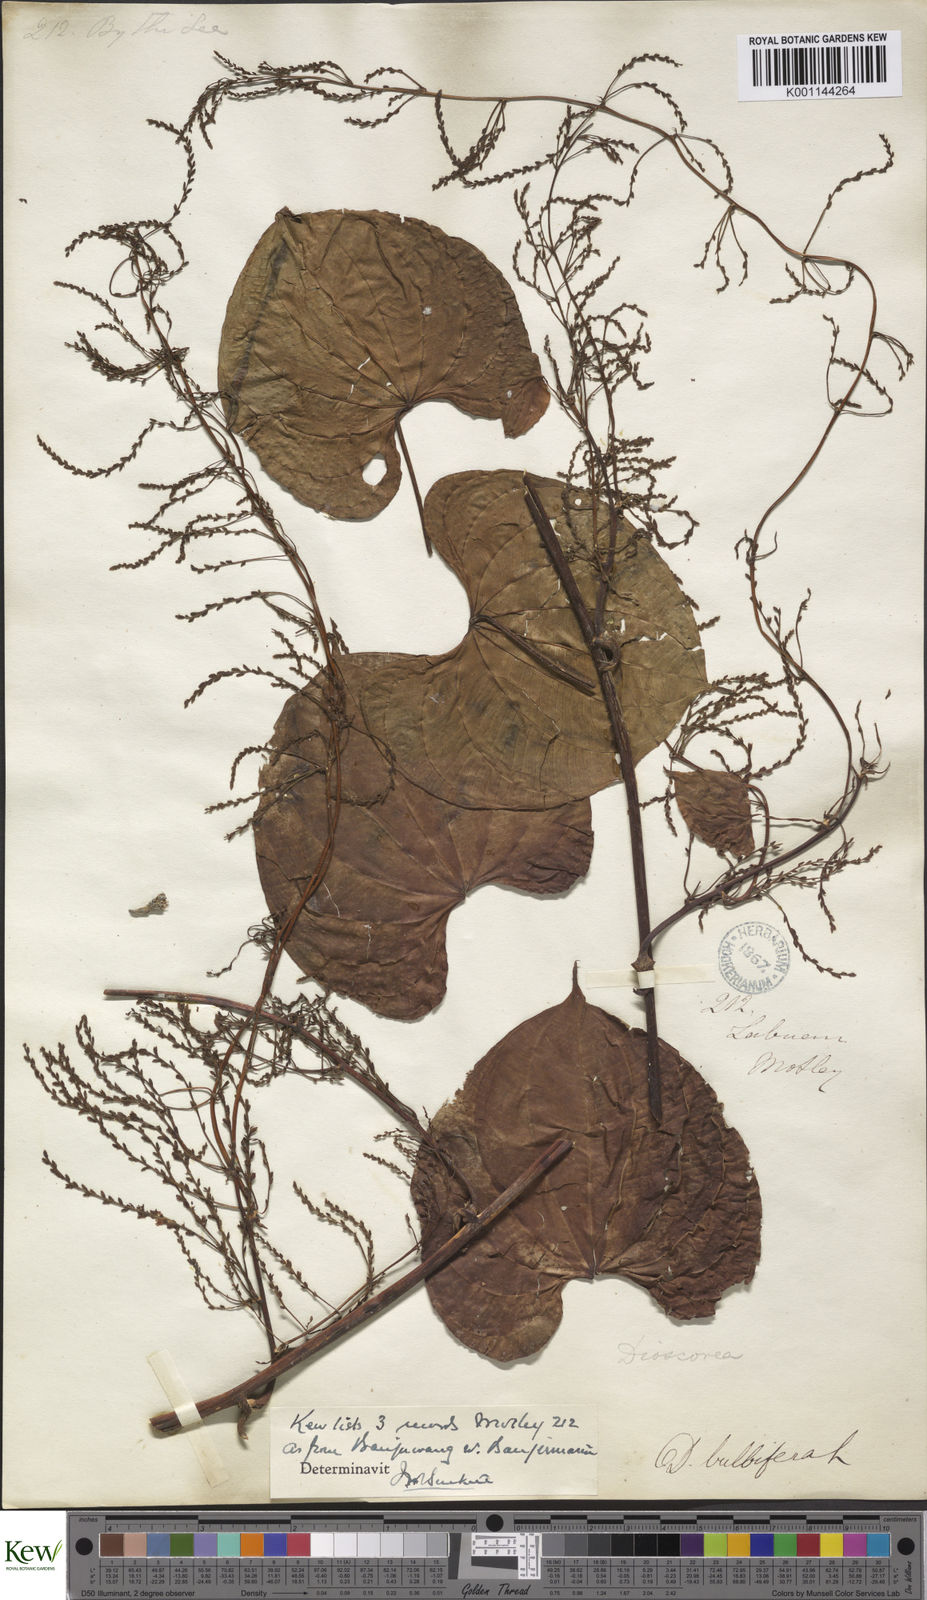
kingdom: Plantae
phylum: Tracheophyta
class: Liliopsida
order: Dioscoreales
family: Dioscoreaceae
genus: Dioscorea
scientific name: Dioscorea bulbifera
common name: Air yam
